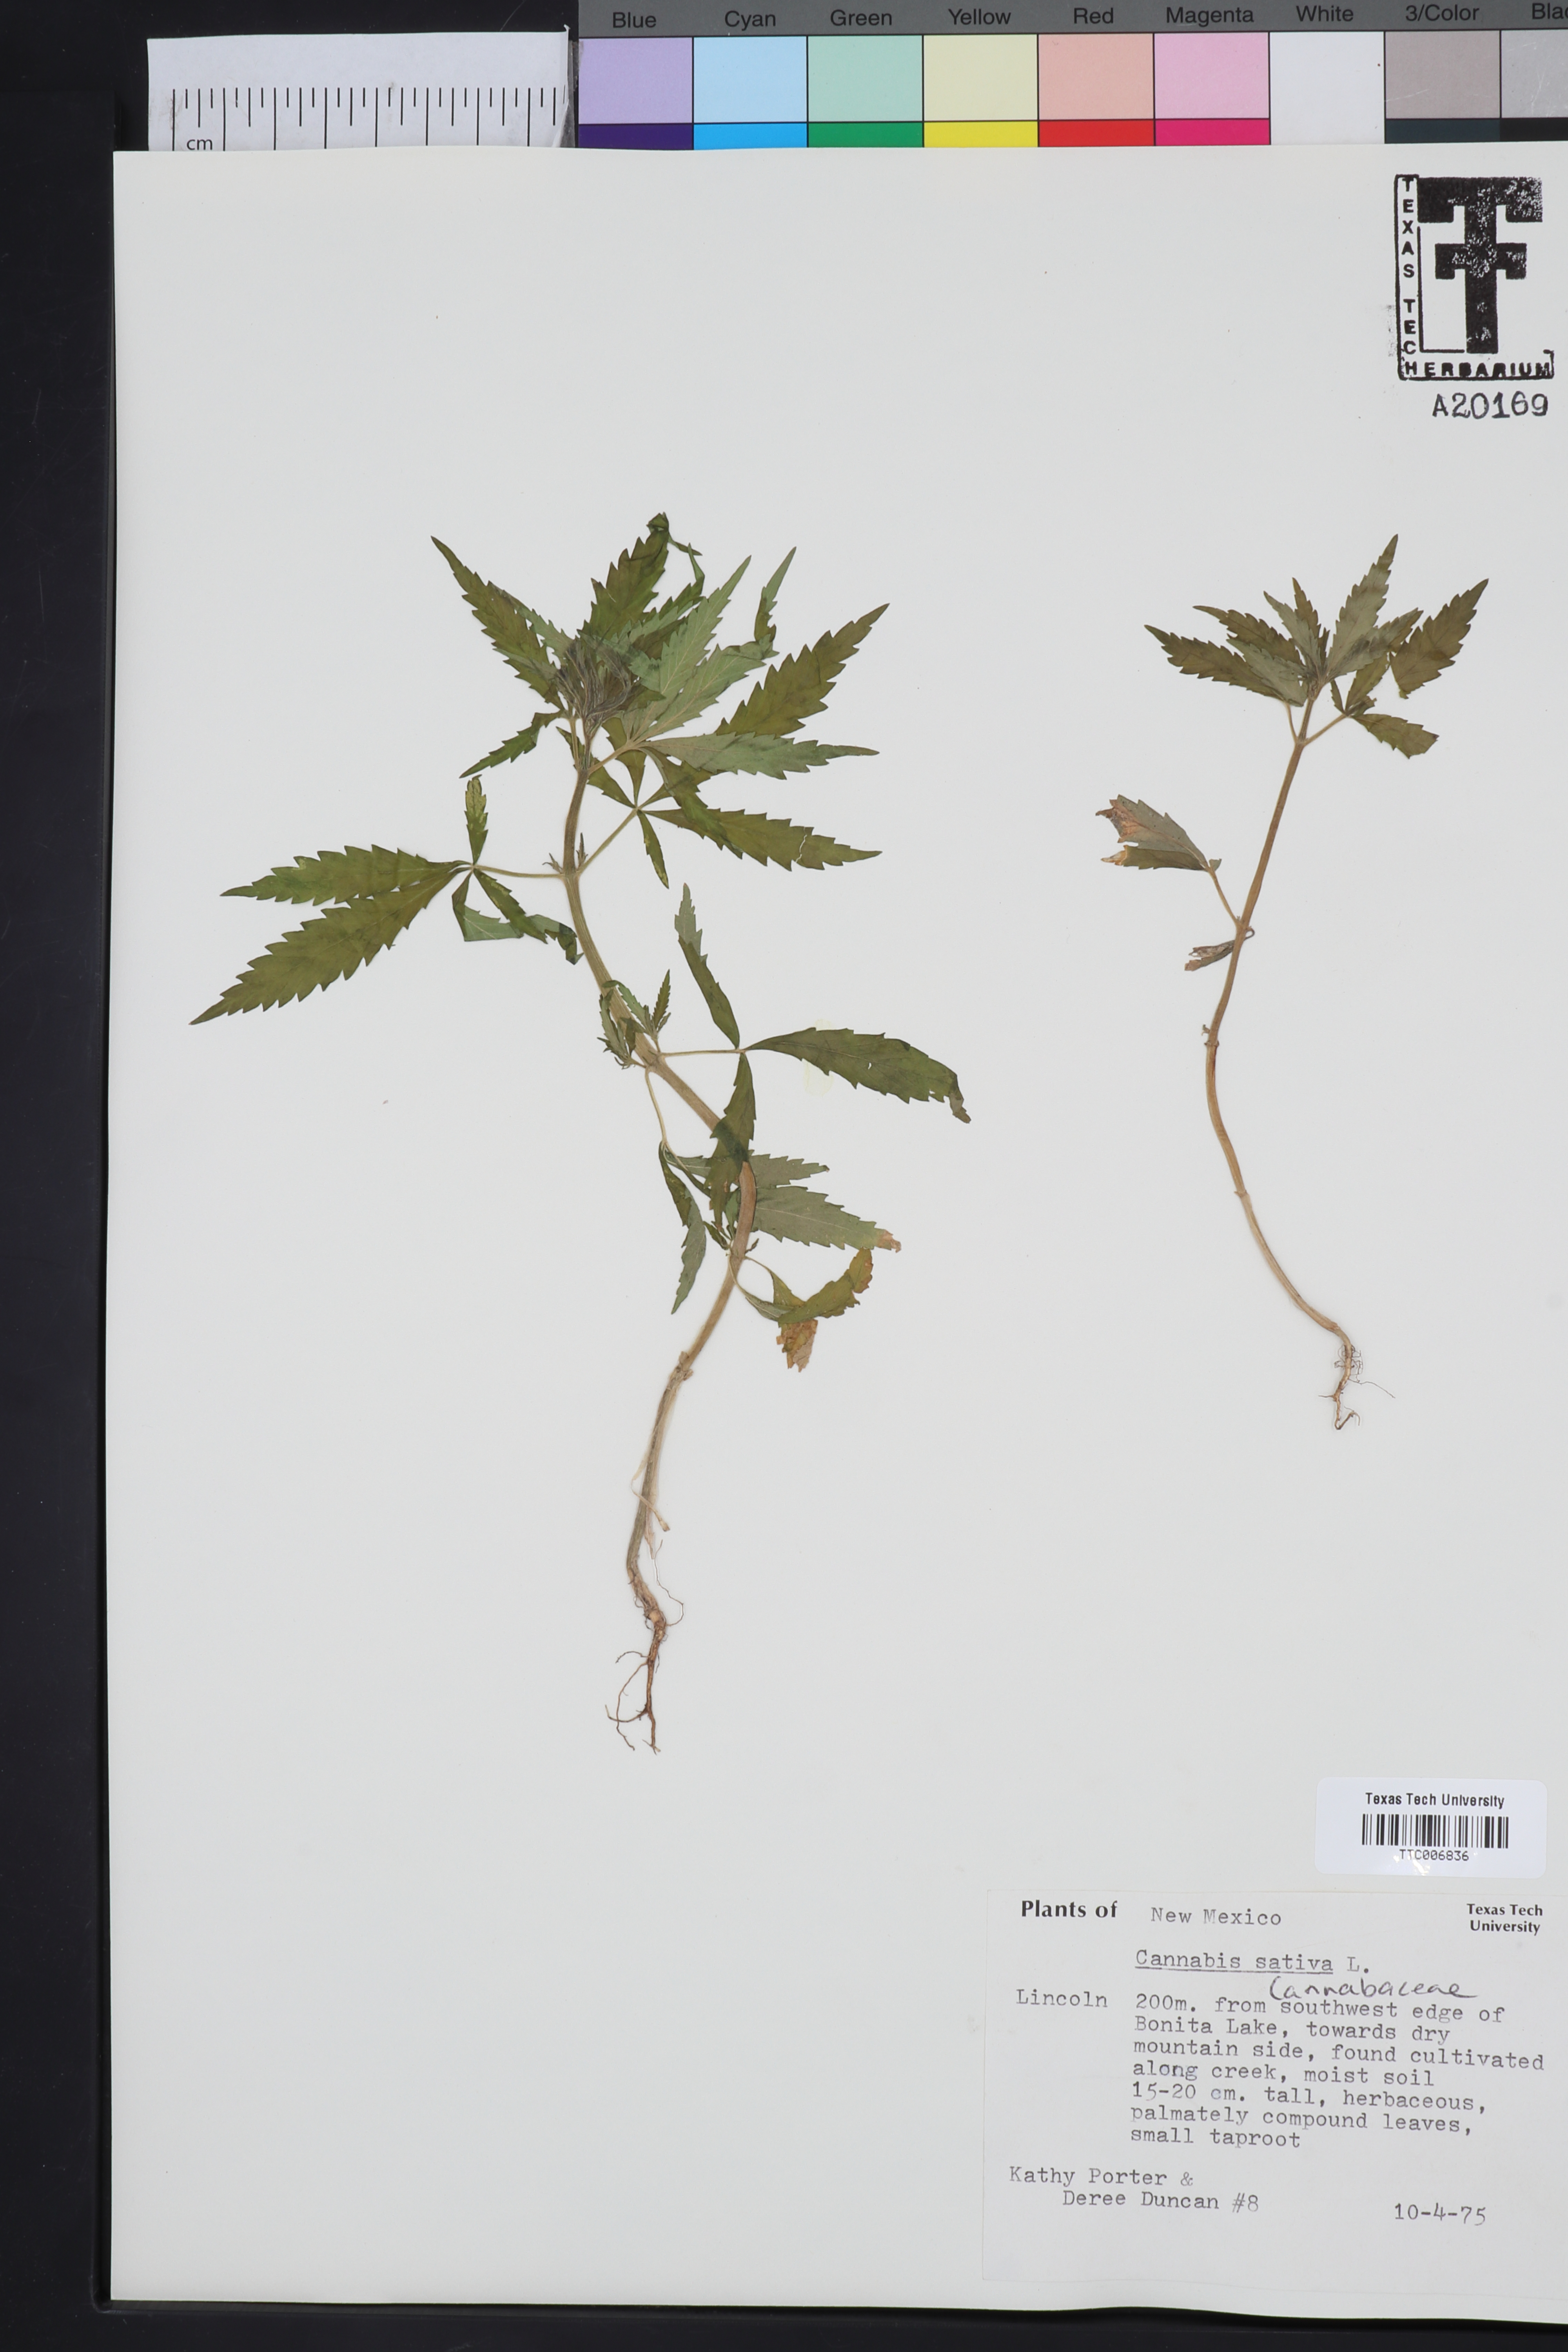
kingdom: Plantae
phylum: Tracheophyta
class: Magnoliopsida
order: Rosales
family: Cannabaceae
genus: Cannabis
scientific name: Cannabis sativa
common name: Hemp
